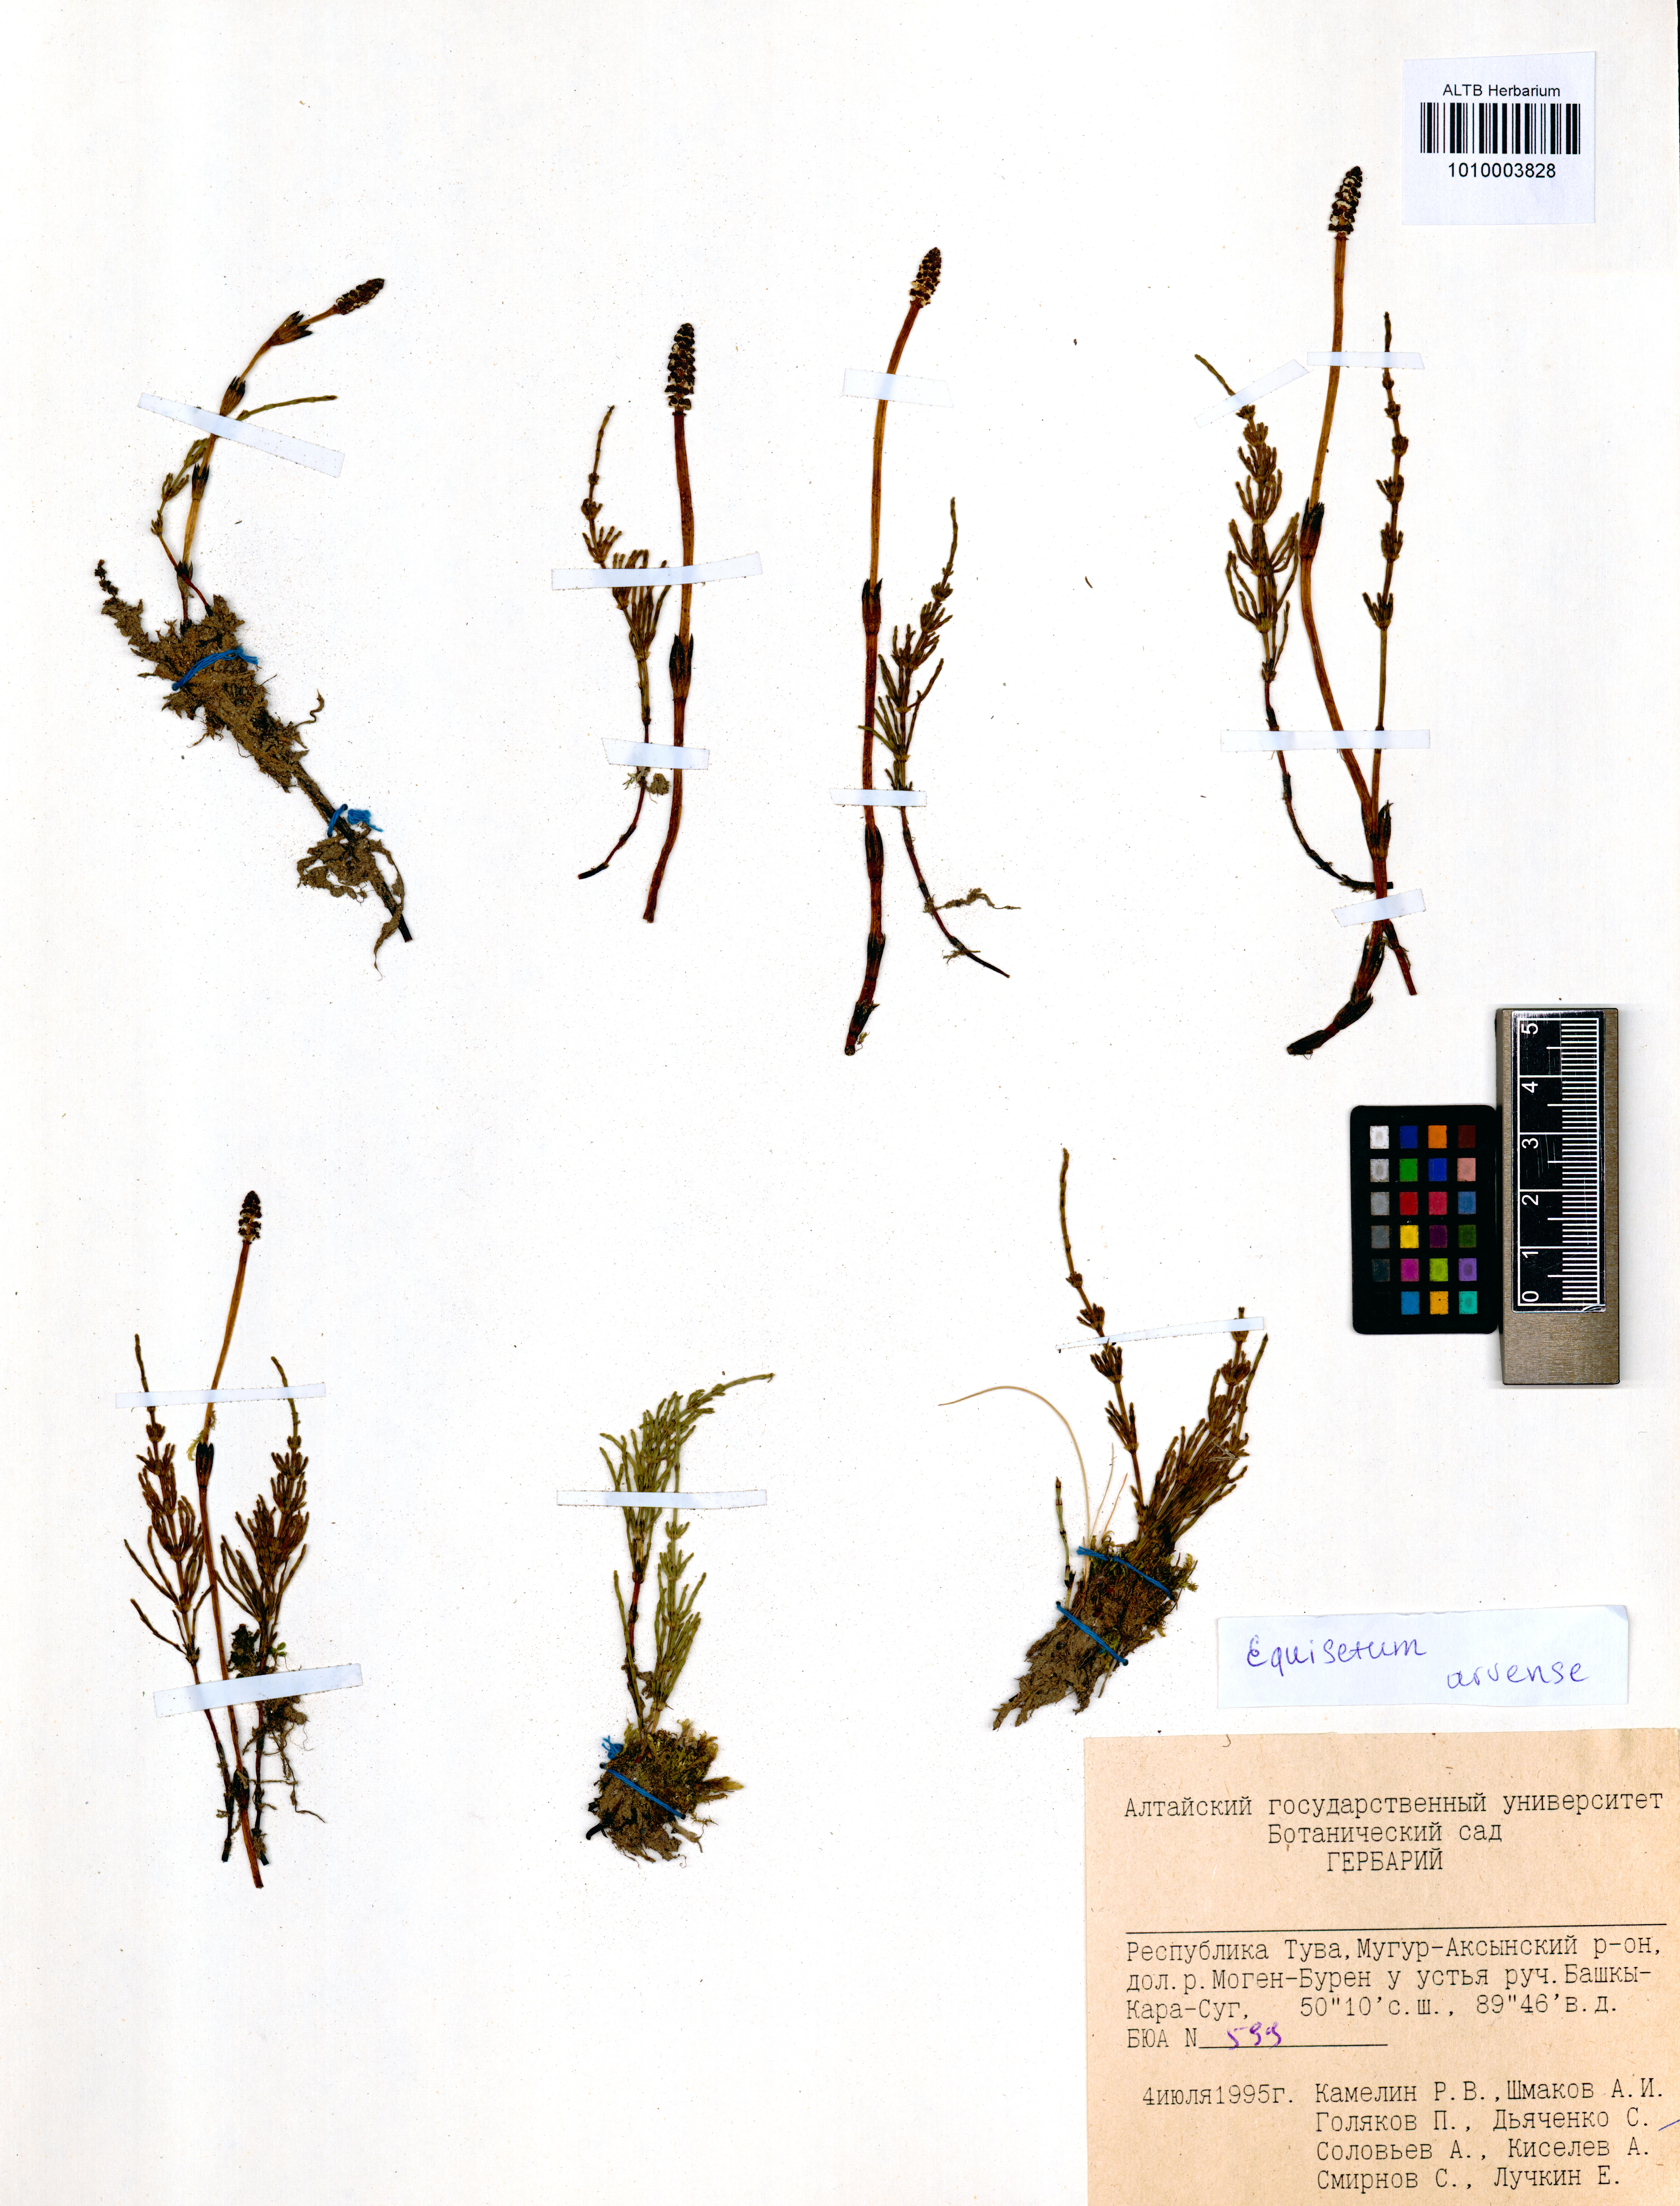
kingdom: Plantae
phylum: Tracheophyta
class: Polypodiopsida
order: Equisetales
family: Equisetaceae
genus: Equisetum
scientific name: Equisetum arvense
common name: Field horsetail
